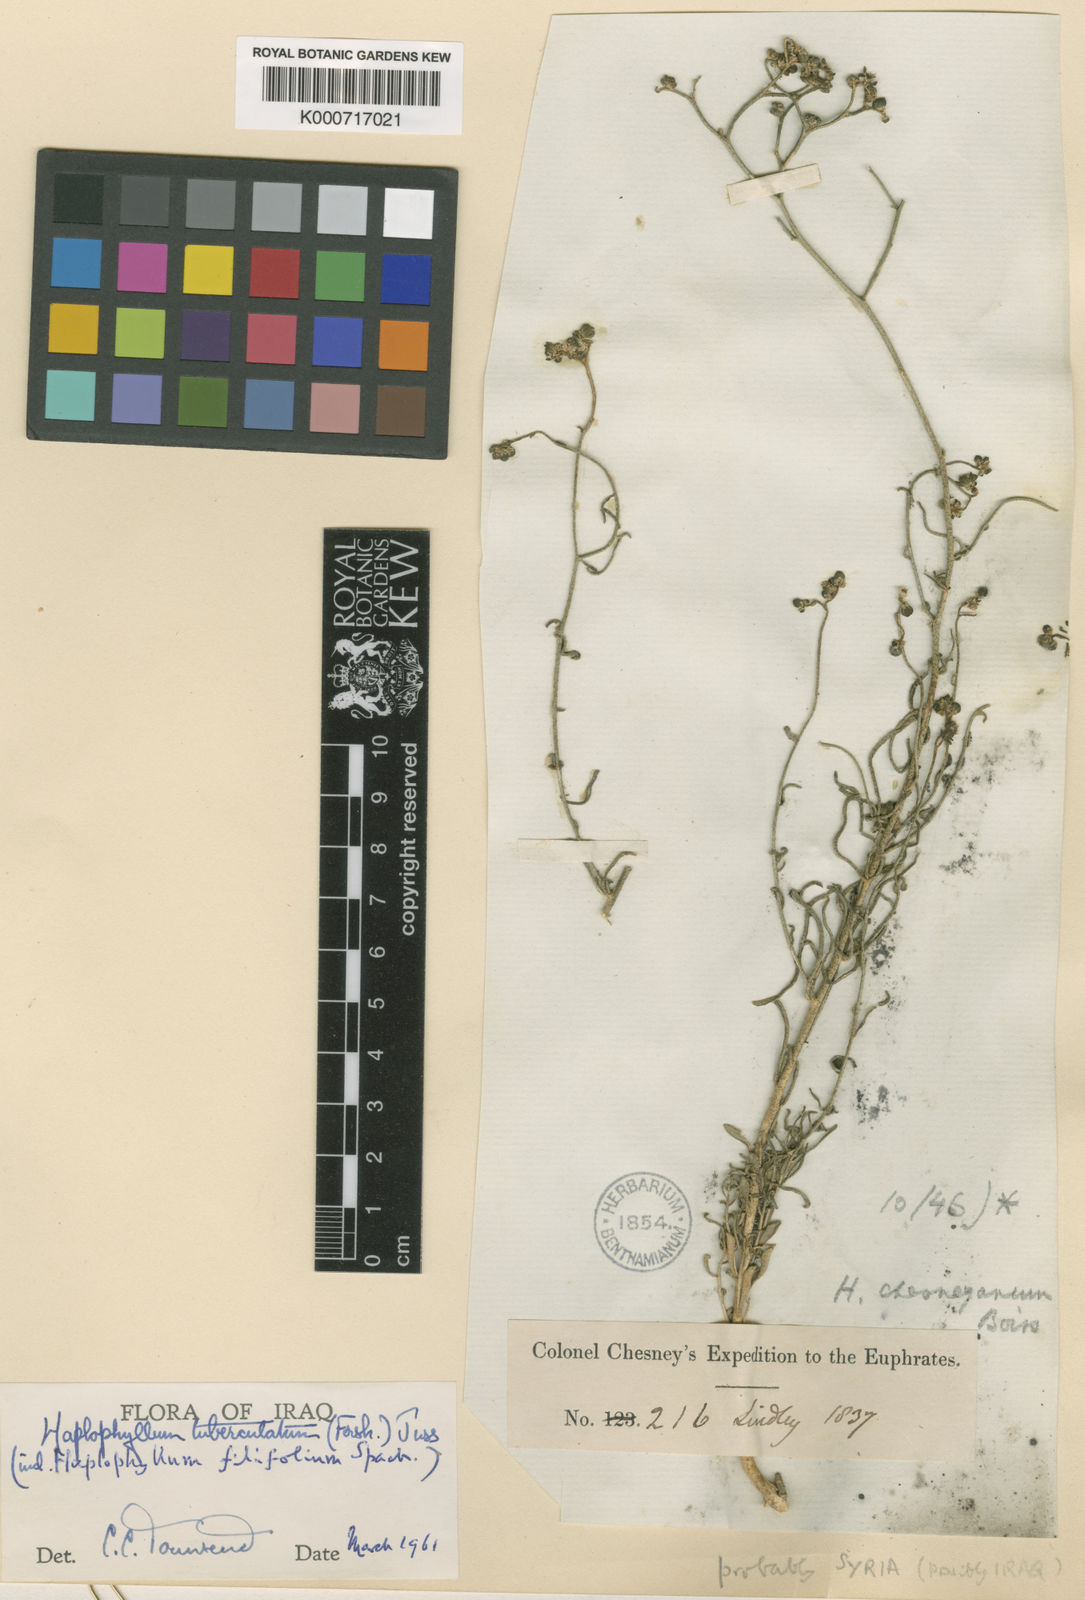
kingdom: Plantae
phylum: Tracheophyta
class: Magnoliopsida
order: Sapindales
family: Rutaceae
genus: Haplophyllum
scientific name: Haplophyllum tuberculatum
